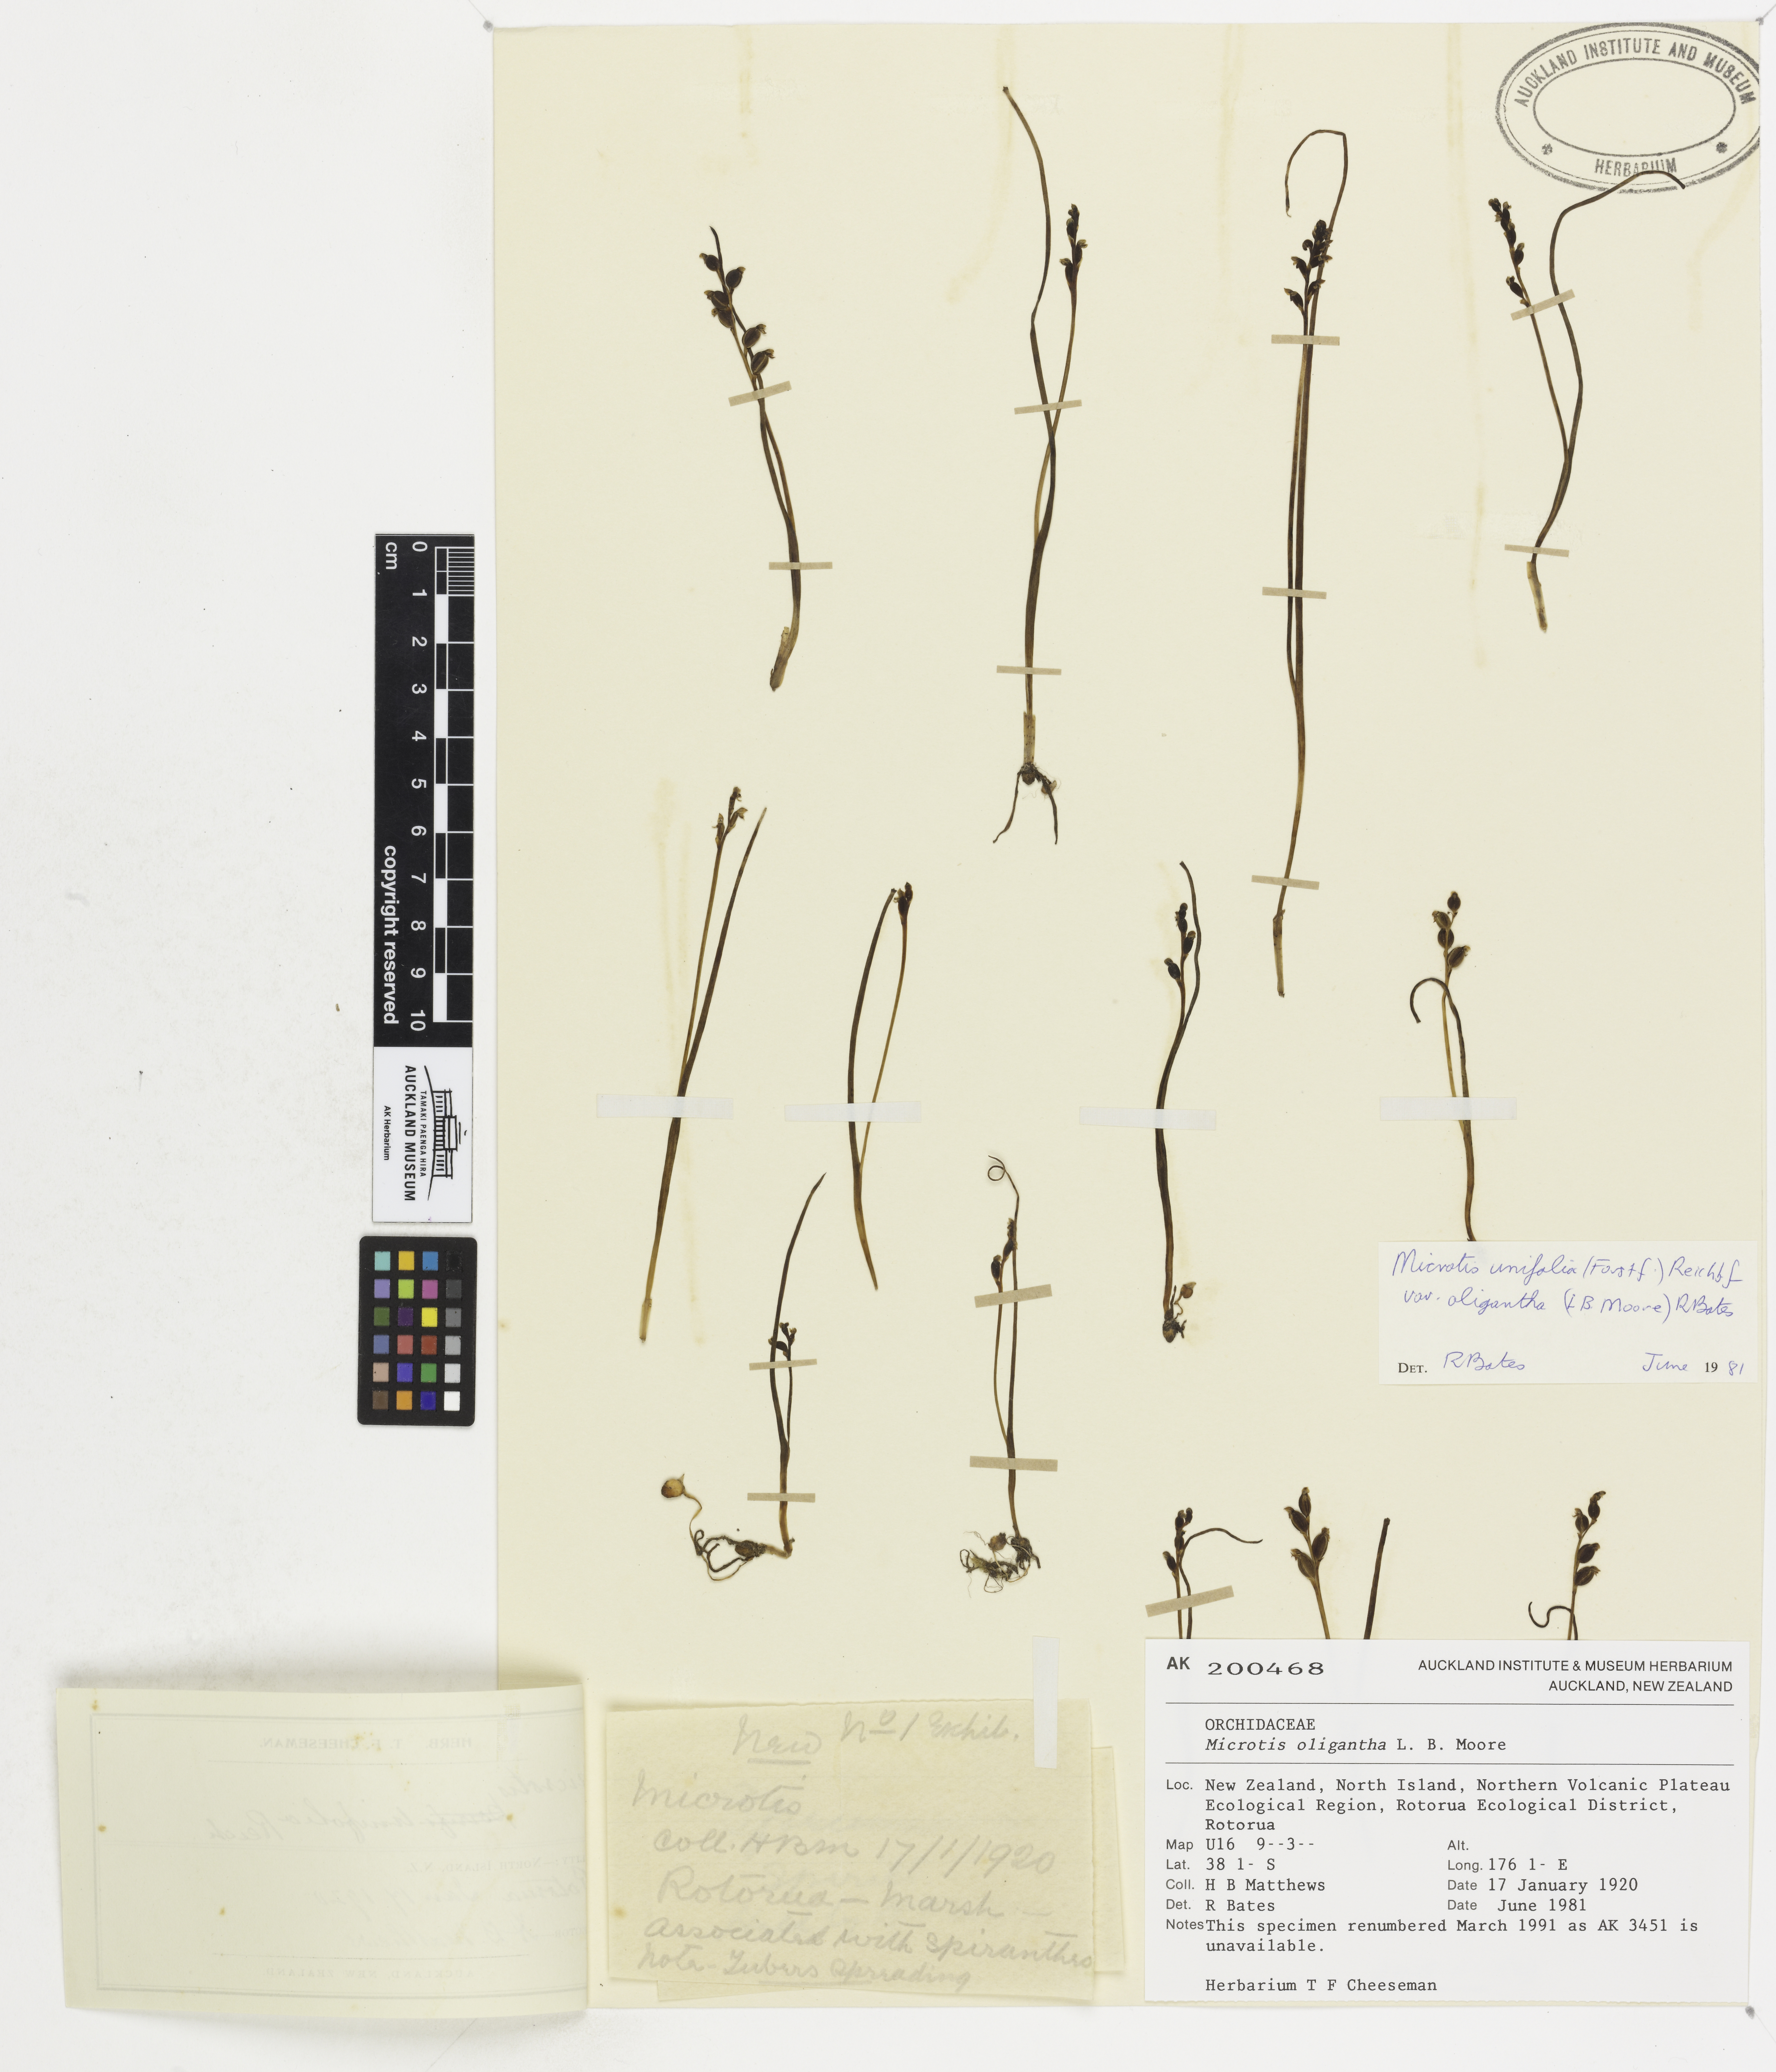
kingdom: Plantae
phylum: Tracheophyta
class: Liliopsida
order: Asparagales
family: Orchidaceae
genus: Microtis
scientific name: Microtis oligantha
